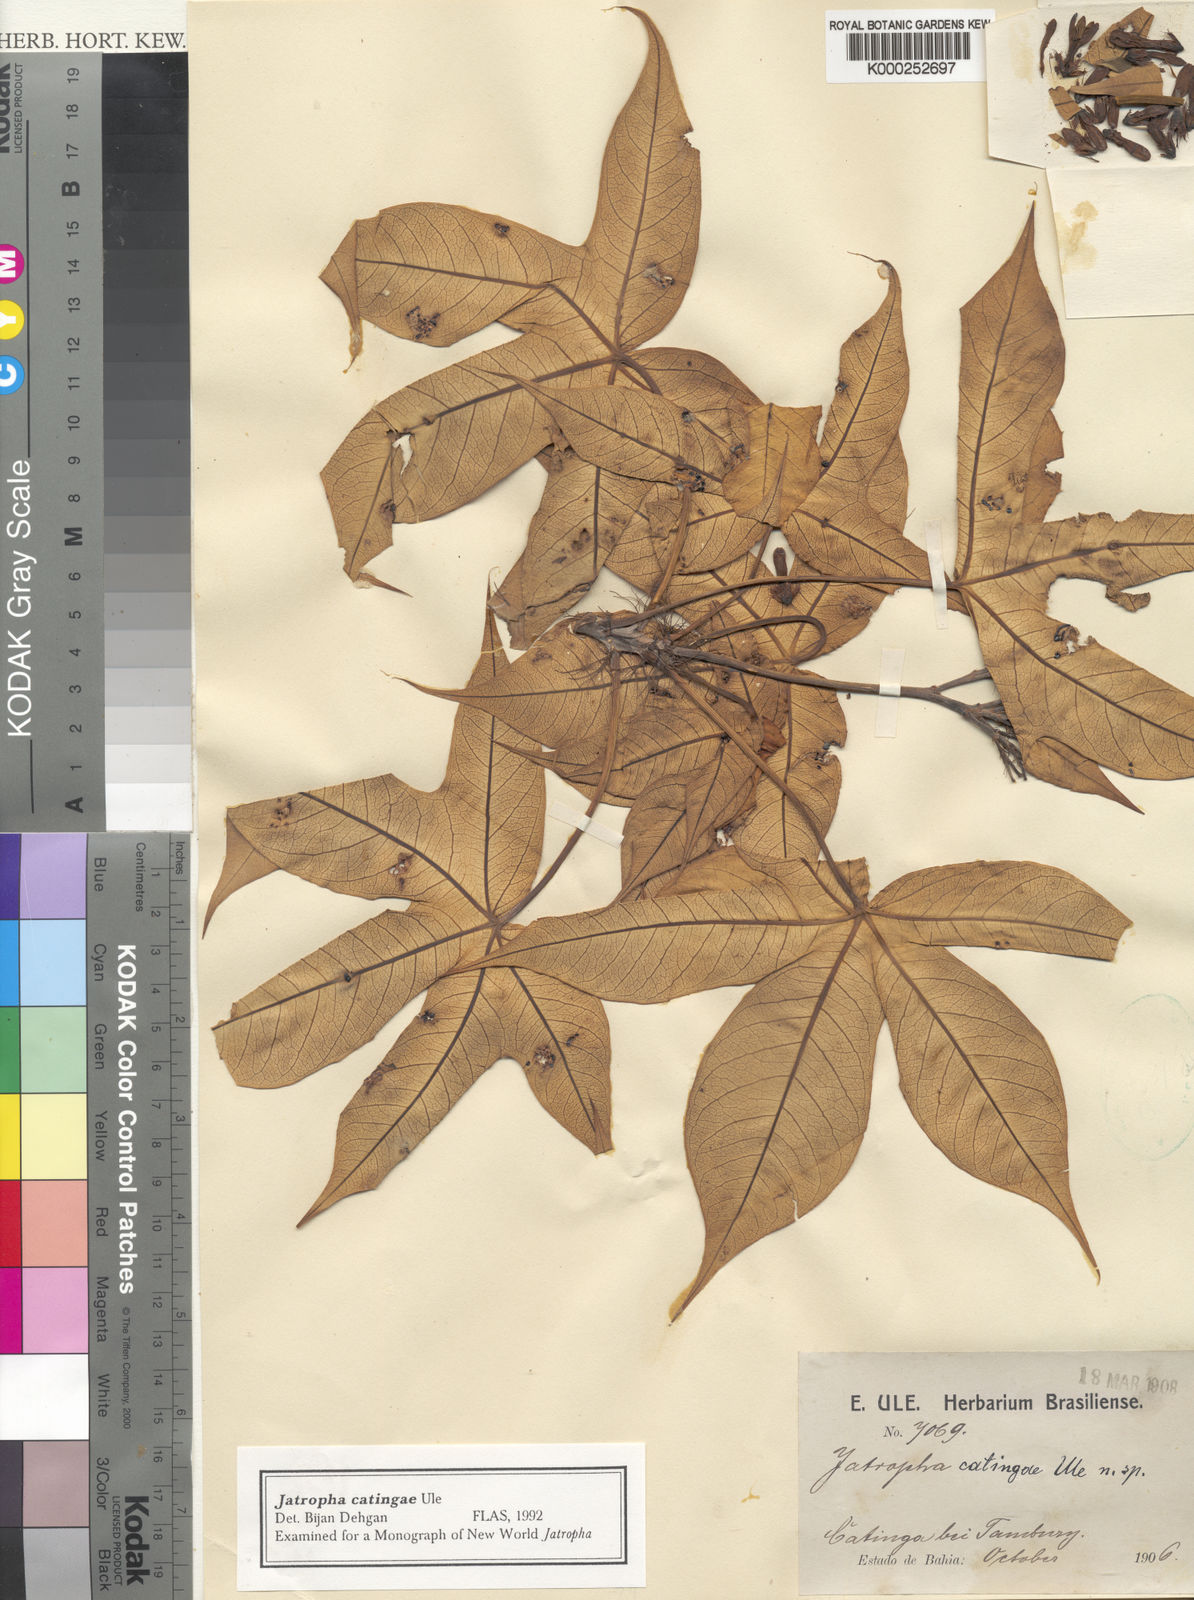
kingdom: Plantae
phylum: Tracheophyta
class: Magnoliopsida
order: Malpighiales
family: Euphorbiaceae
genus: Jatropha
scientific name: Jatropha catingae
